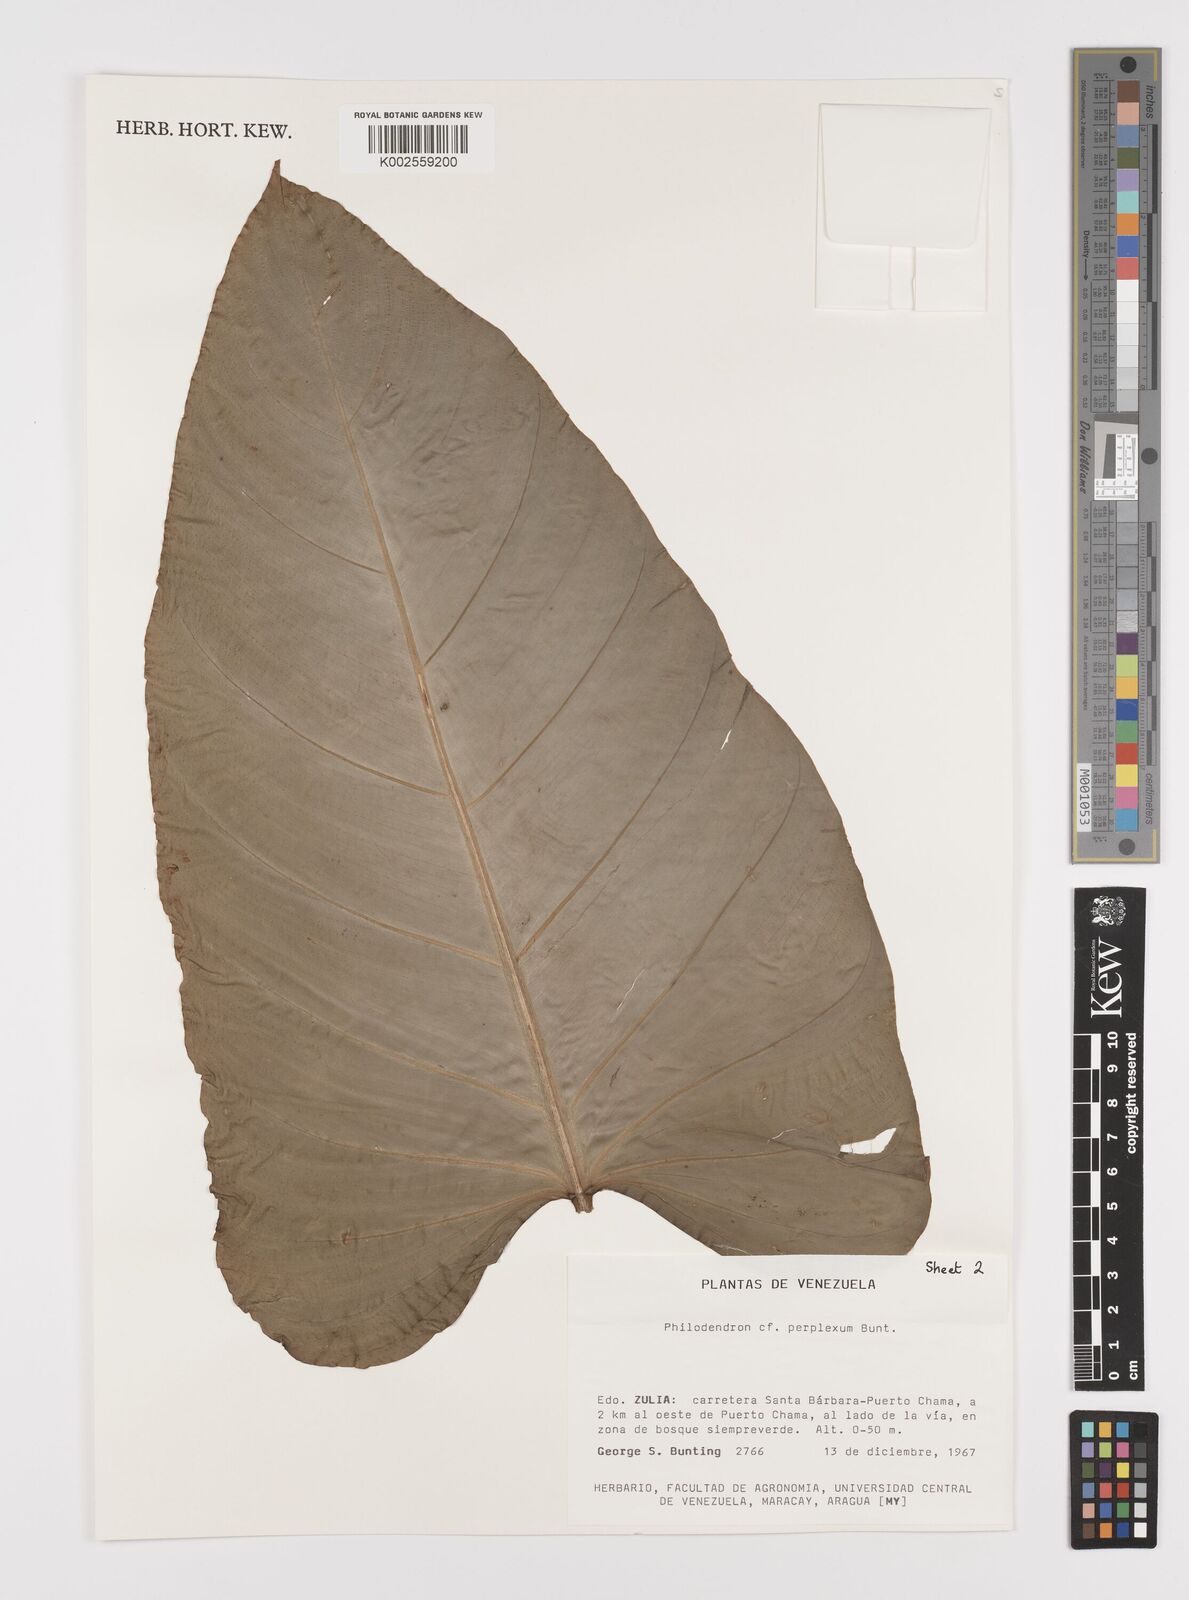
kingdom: Plantae
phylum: Tracheophyta
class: Liliopsida
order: Alismatales
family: Araceae
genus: Philodendron
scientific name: Philodendron perplexum
